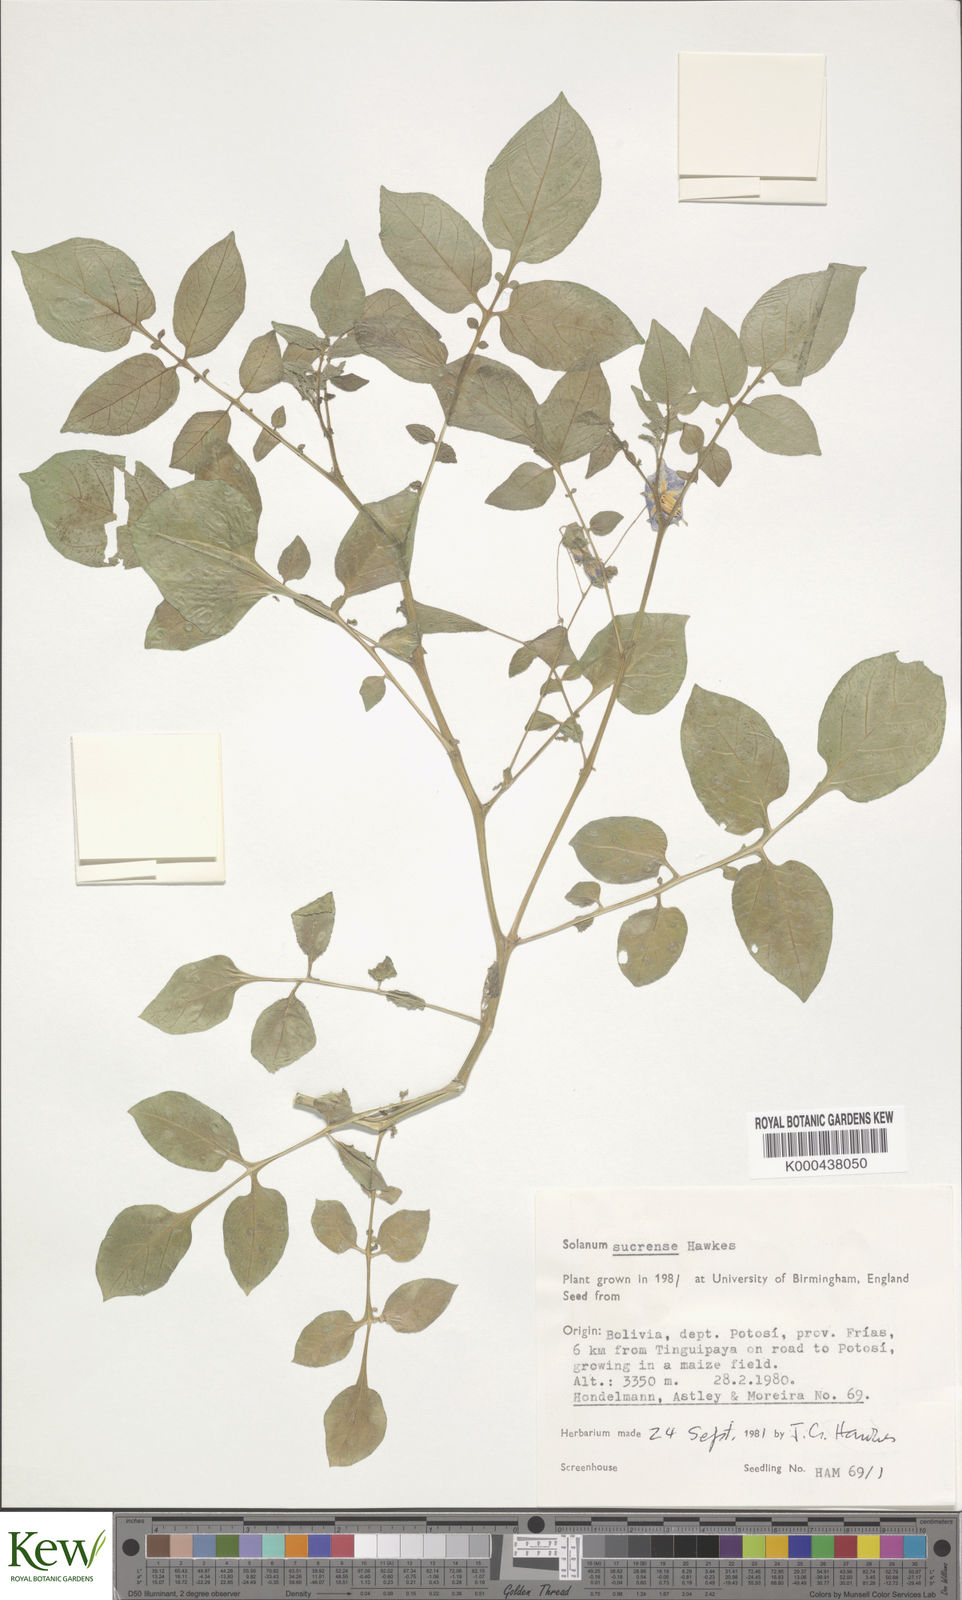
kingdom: Plantae
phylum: Tracheophyta
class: Magnoliopsida
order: Solanales
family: Solanaceae
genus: Solanum
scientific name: Solanum brevicaule
